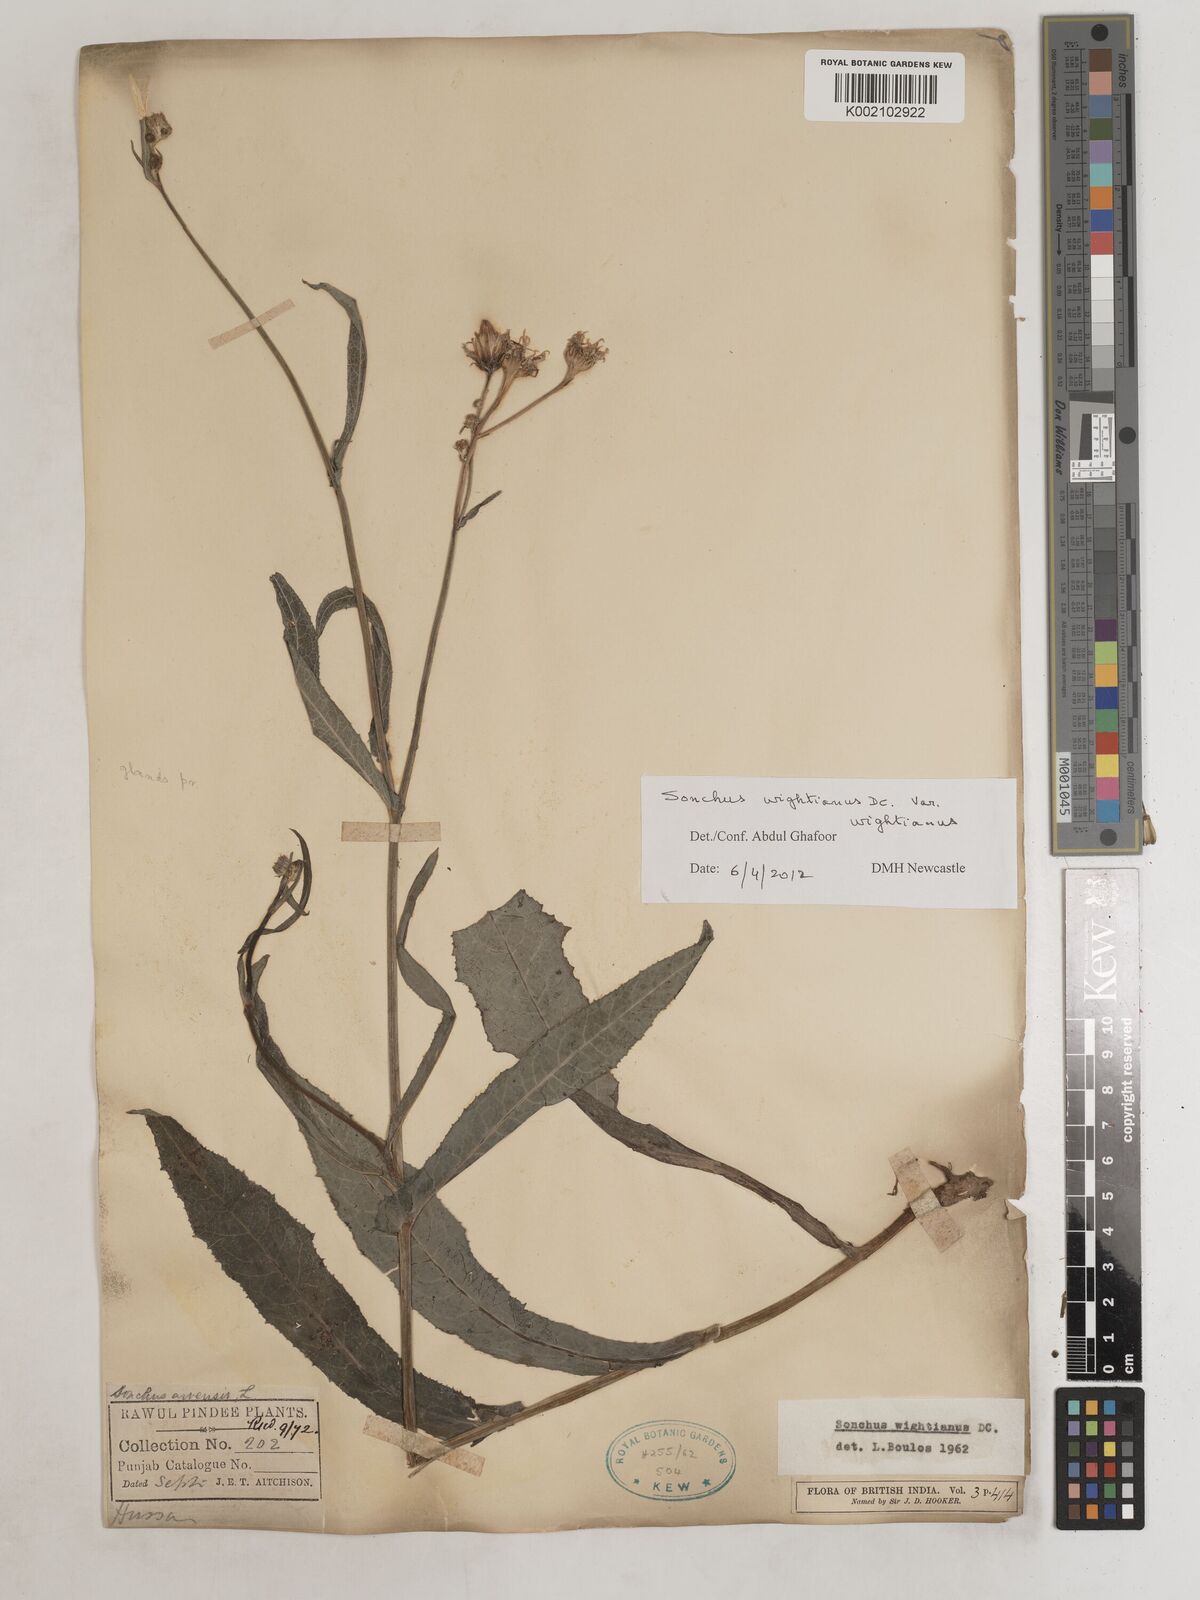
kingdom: Plantae
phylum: Tracheophyta
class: Magnoliopsida
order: Asterales
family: Asteraceae
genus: Sonchus
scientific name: Sonchus arvensis
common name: Perennial sow-thistle
